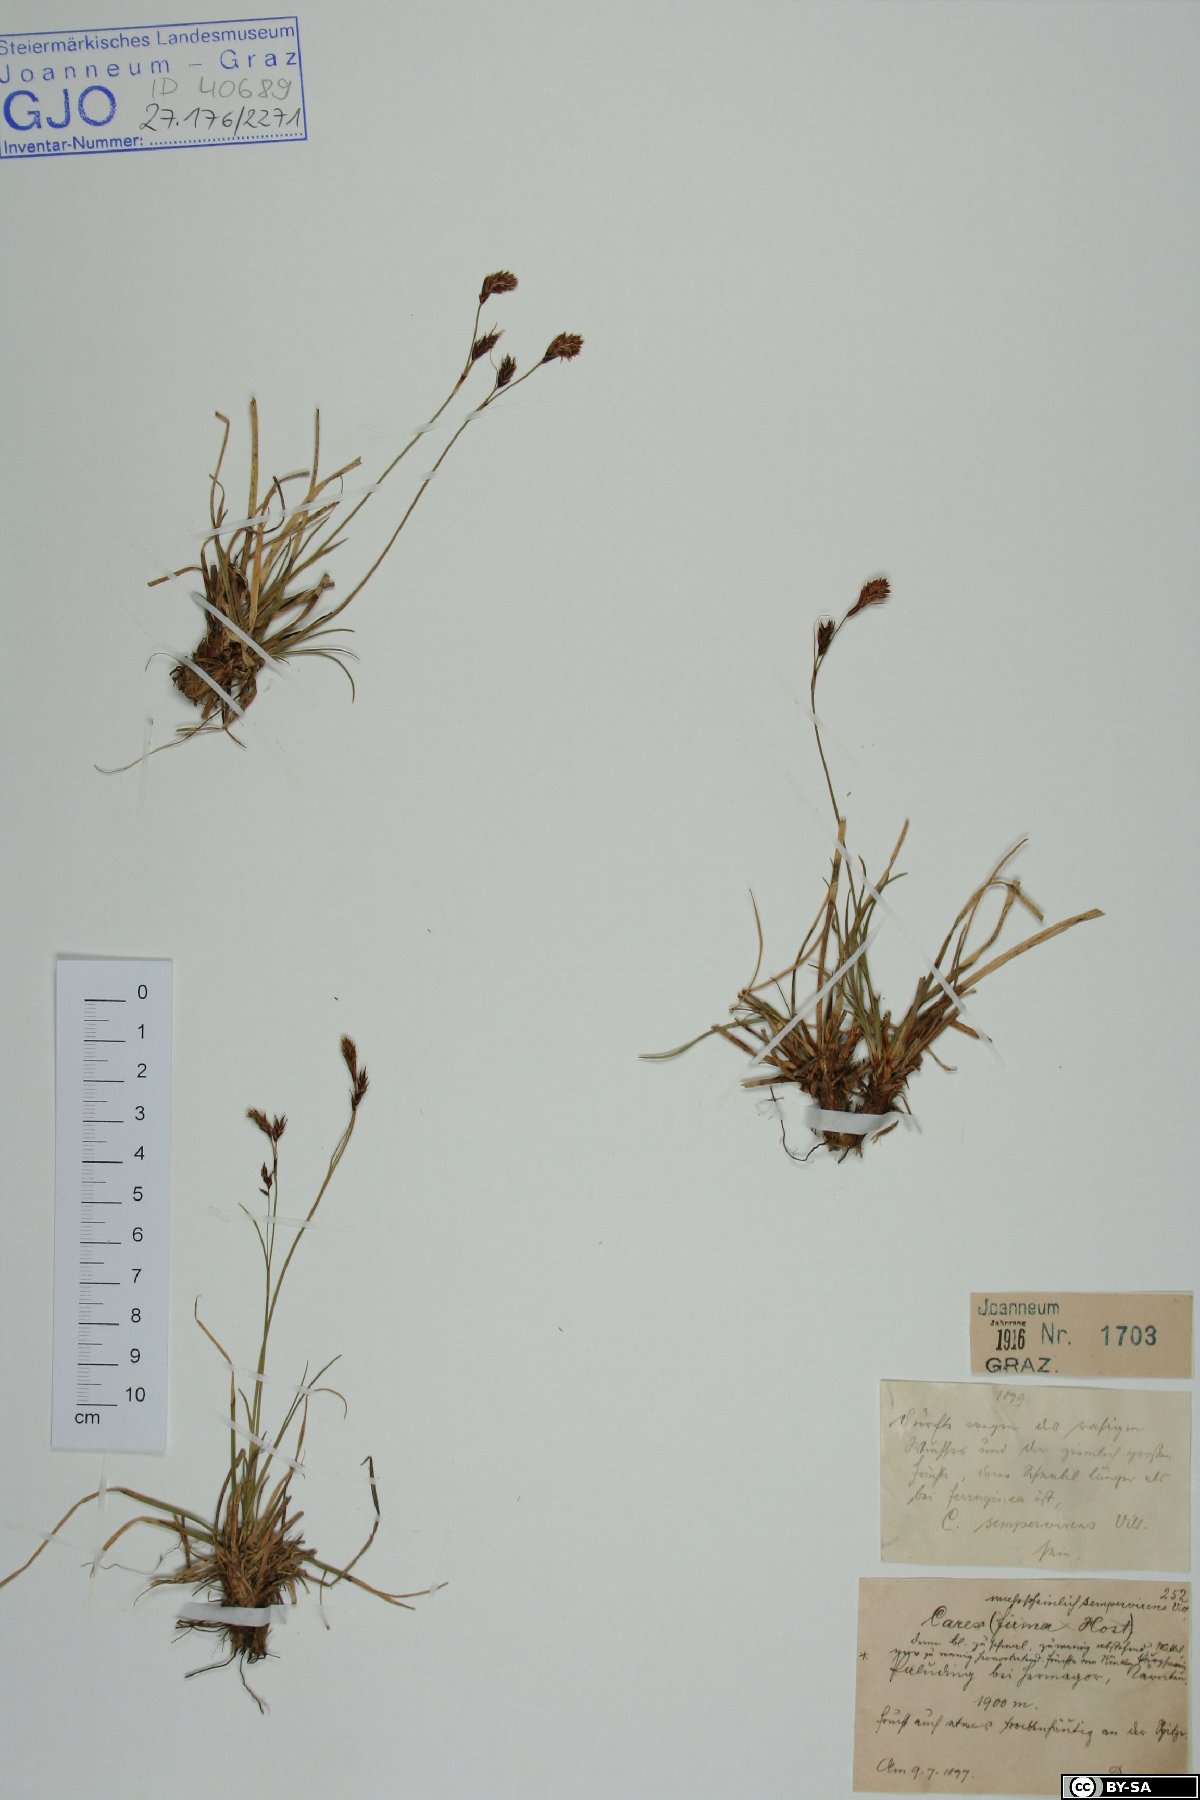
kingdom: Plantae
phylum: Tracheophyta
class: Liliopsida
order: Poales
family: Cyperaceae
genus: Carex
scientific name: Carex sempervirens
